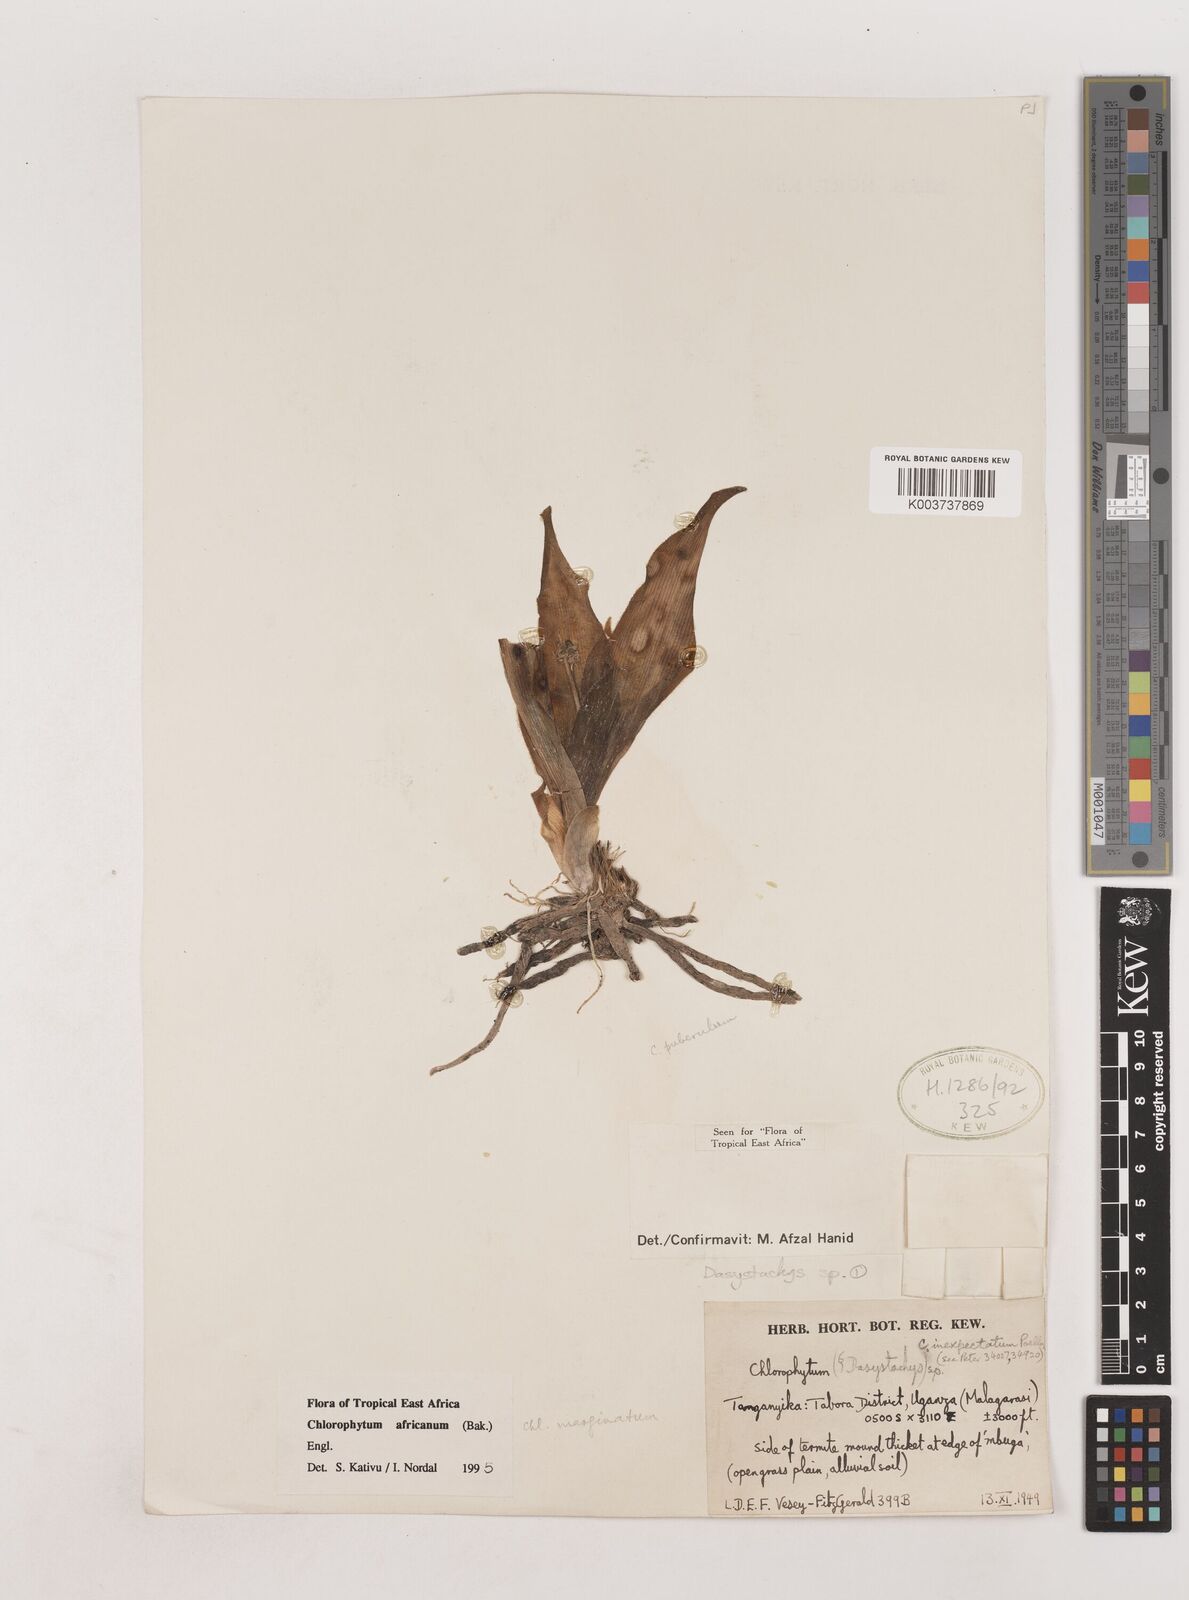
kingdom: Plantae
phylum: Tracheophyta
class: Liliopsida
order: Asparagales
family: Asparagaceae
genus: Chlorophytum
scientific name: Chlorophytum africanum
